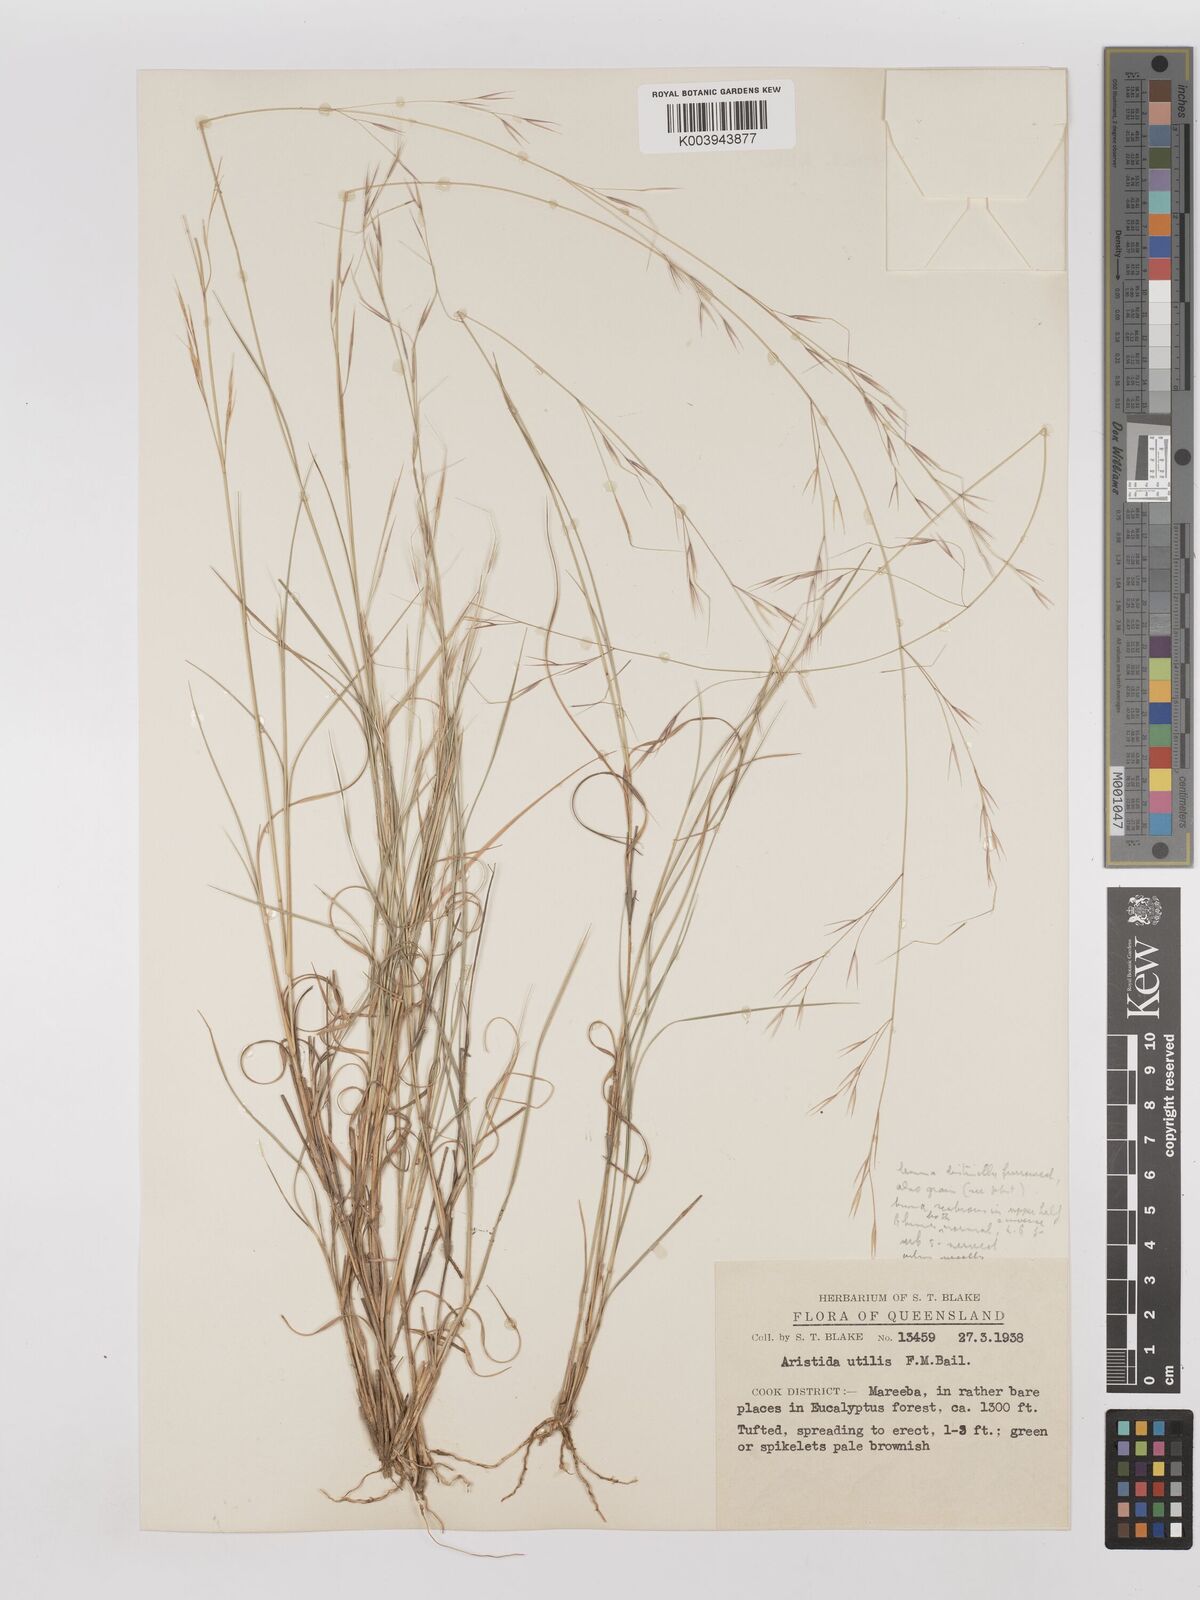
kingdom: Plantae
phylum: Tracheophyta
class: Liliopsida
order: Poales
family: Poaceae
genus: Aristida
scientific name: Aristida utilis
